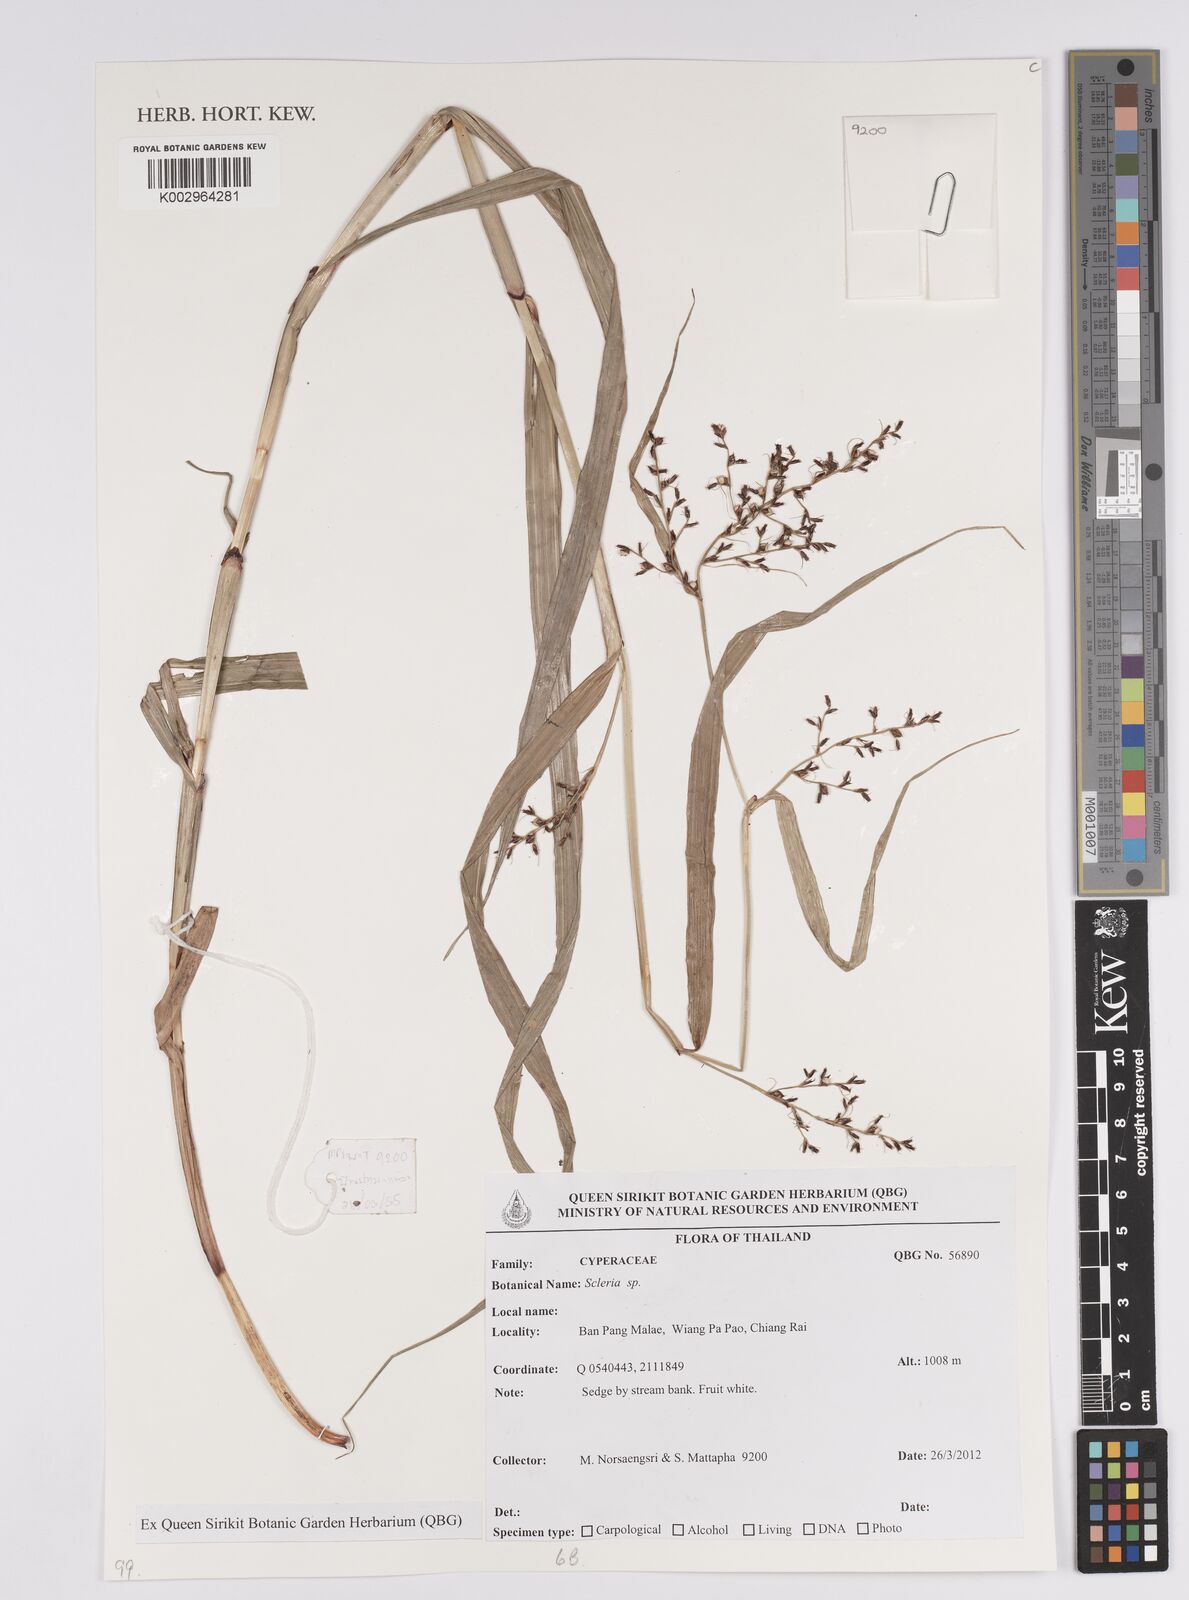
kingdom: Plantae
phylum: Tracheophyta
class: Liliopsida
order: Poales
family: Cyperaceae
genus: Scleria
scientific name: Scleria
